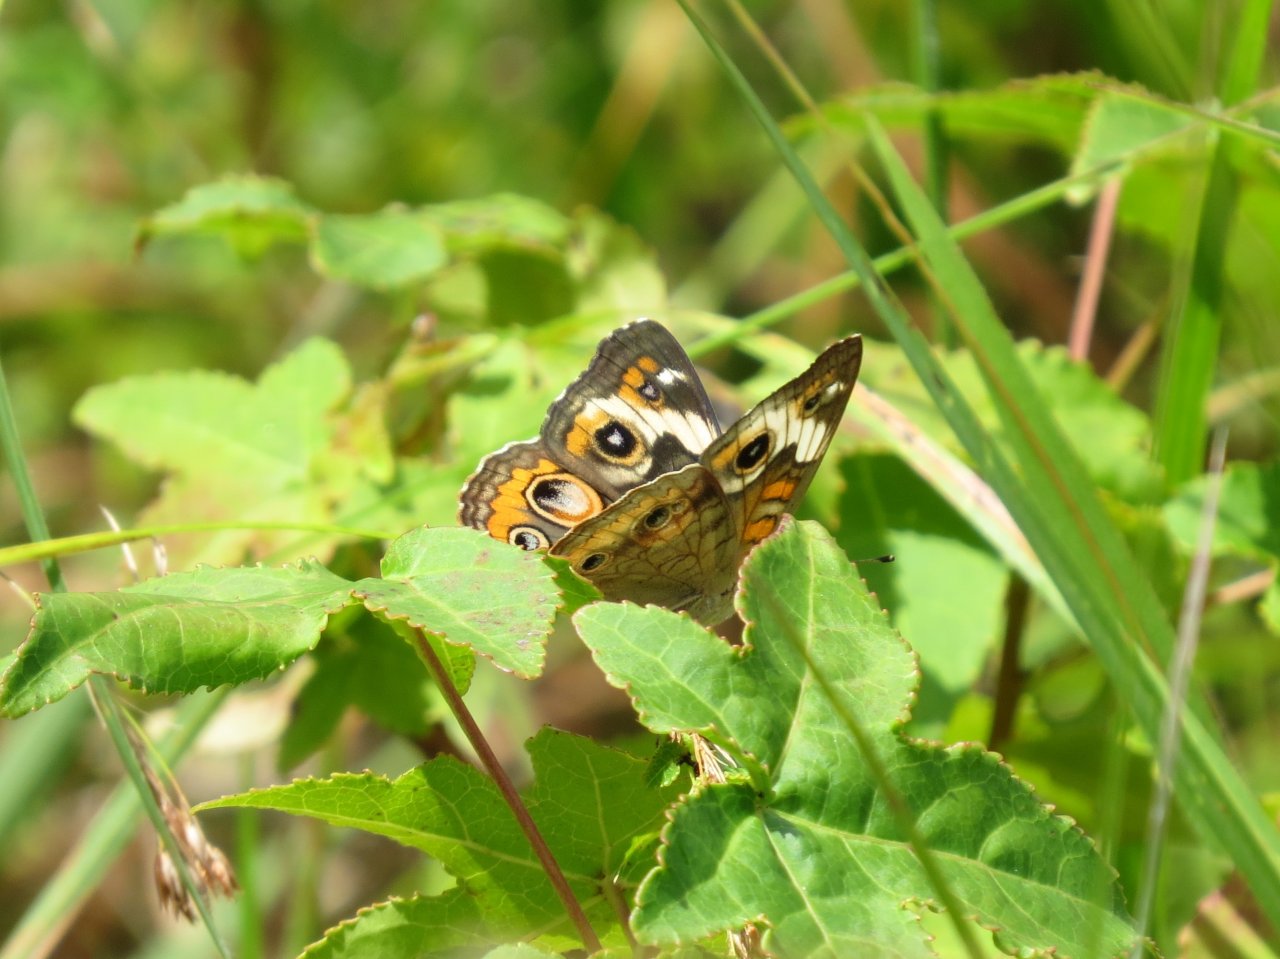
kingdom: Animalia
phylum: Arthropoda
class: Insecta
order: Lepidoptera
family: Nymphalidae
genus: Junonia
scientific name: Junonia coenia
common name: Common Buckeye
